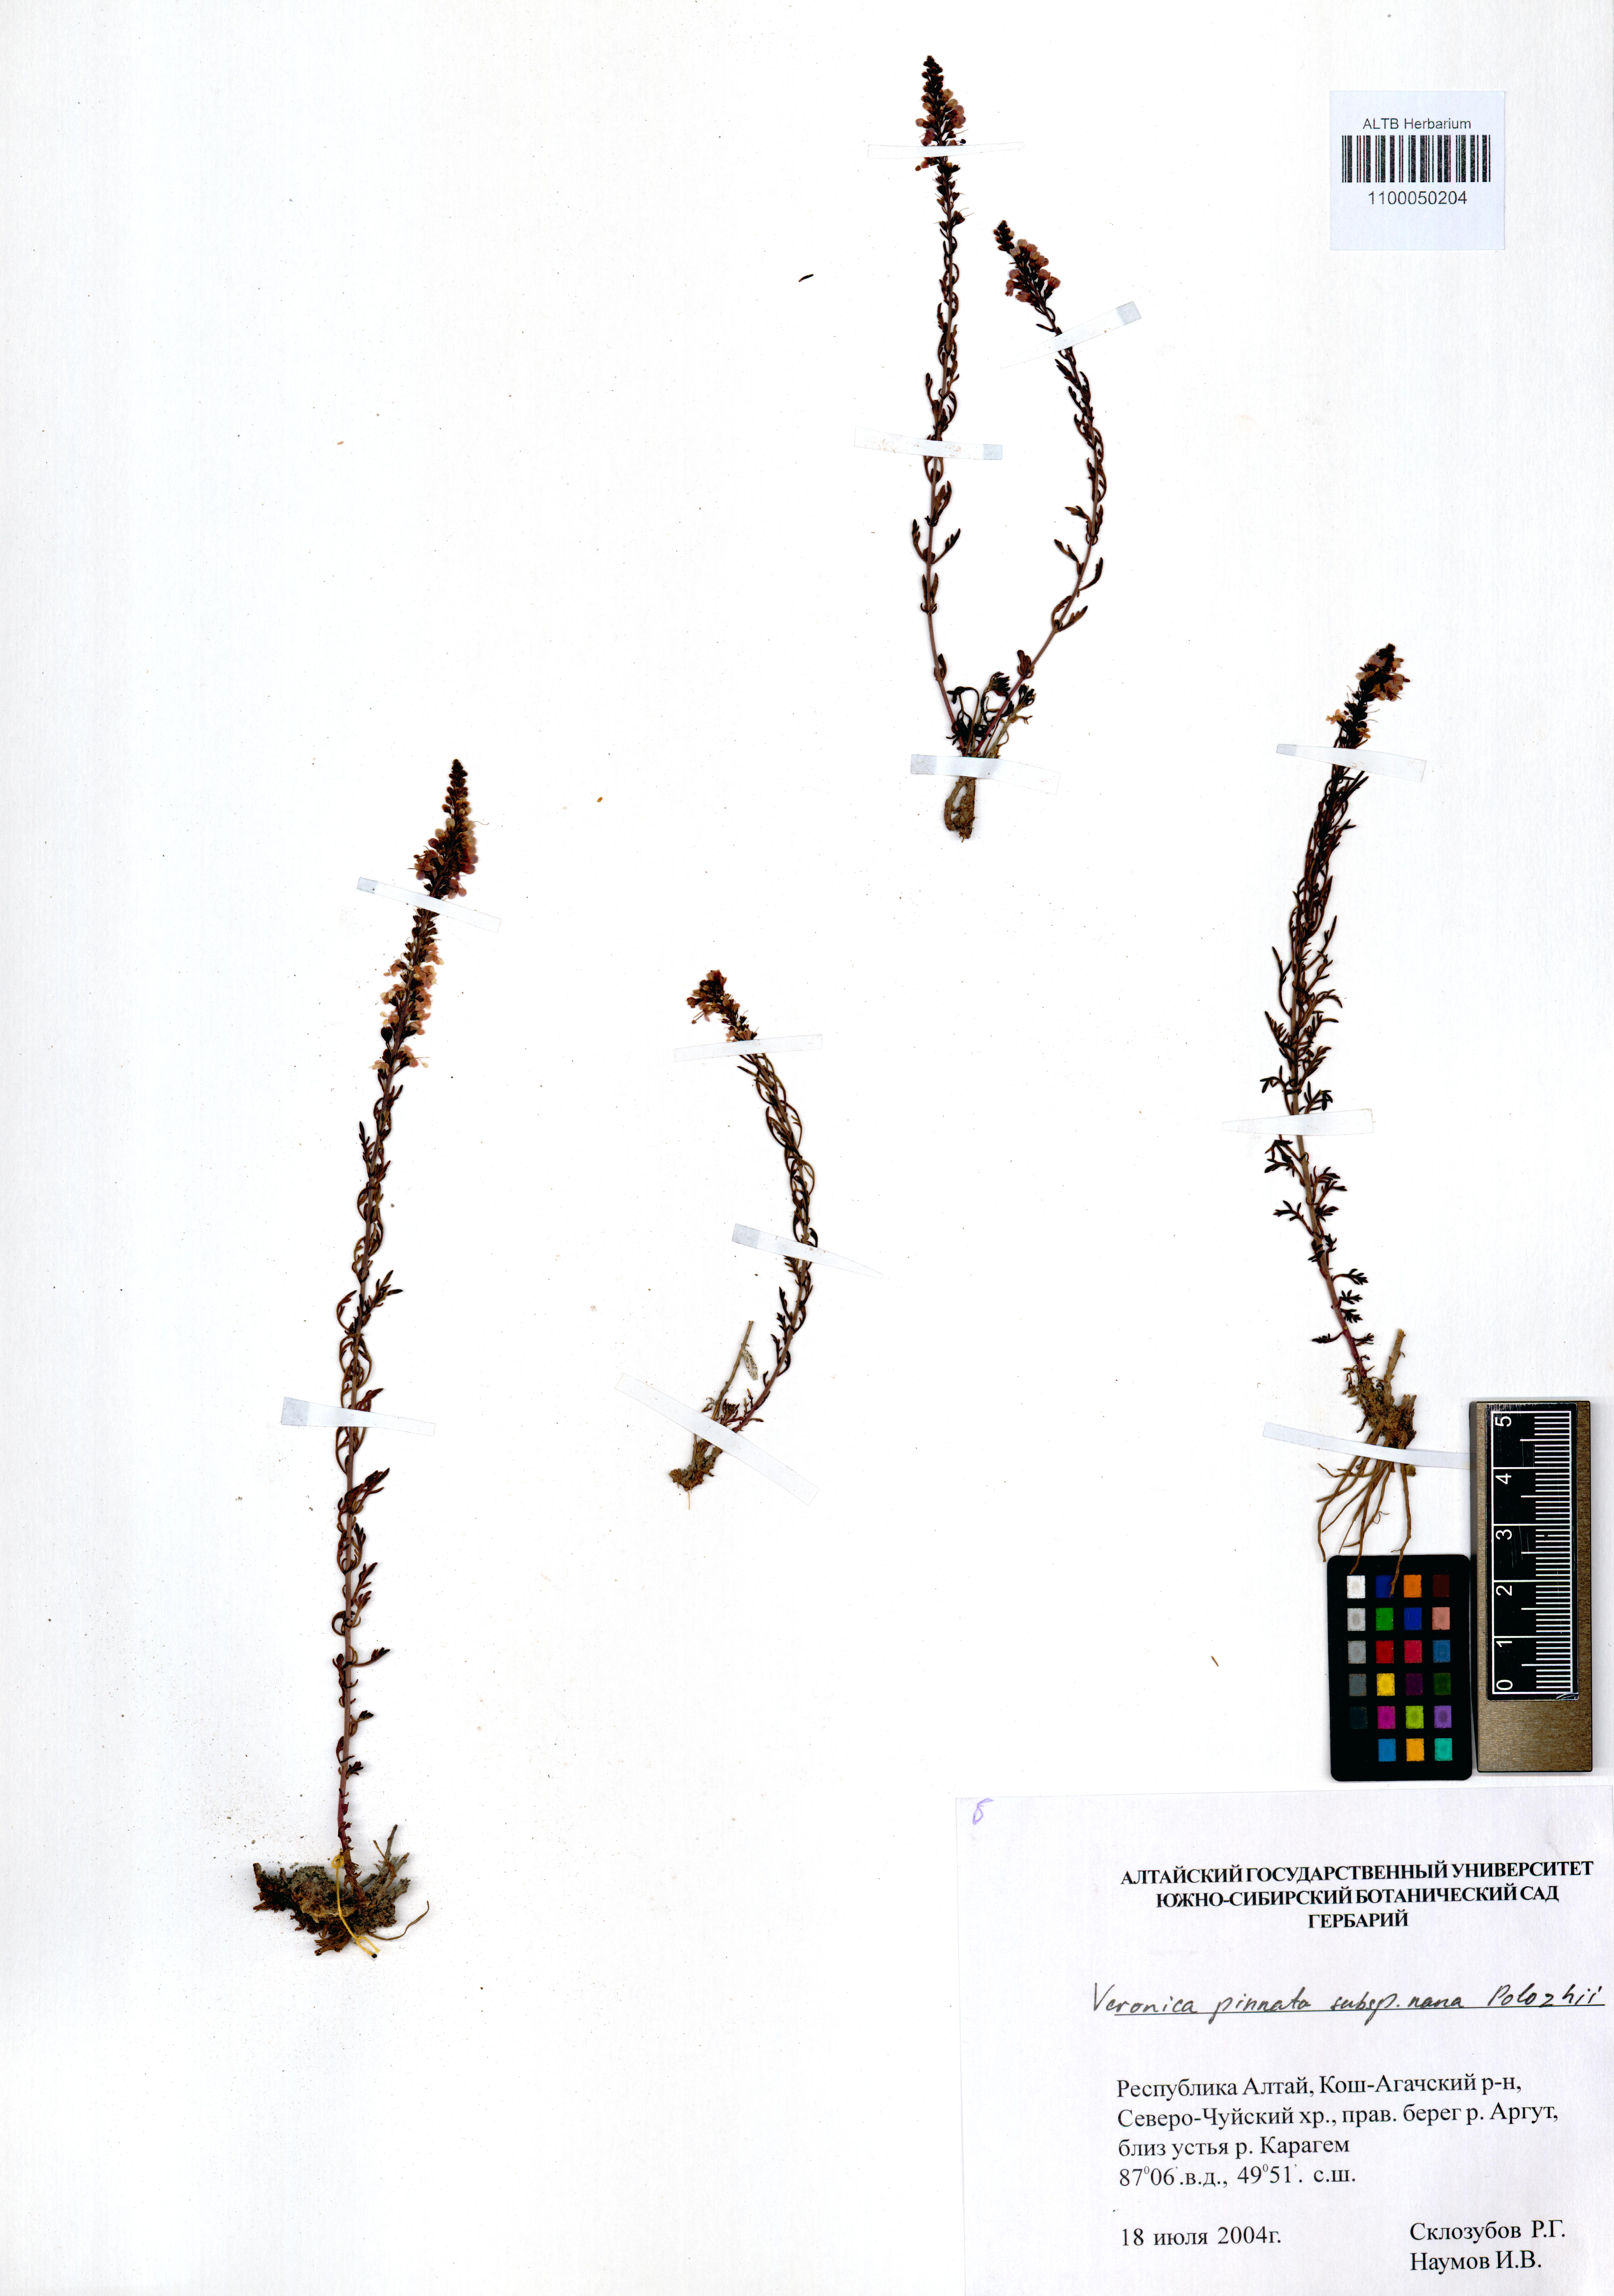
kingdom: Plantae
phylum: Tracheophyta
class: Magnoliopsida
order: Lamiales
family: Plantaginaceae
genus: Veronica
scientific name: Veronica pinnata
